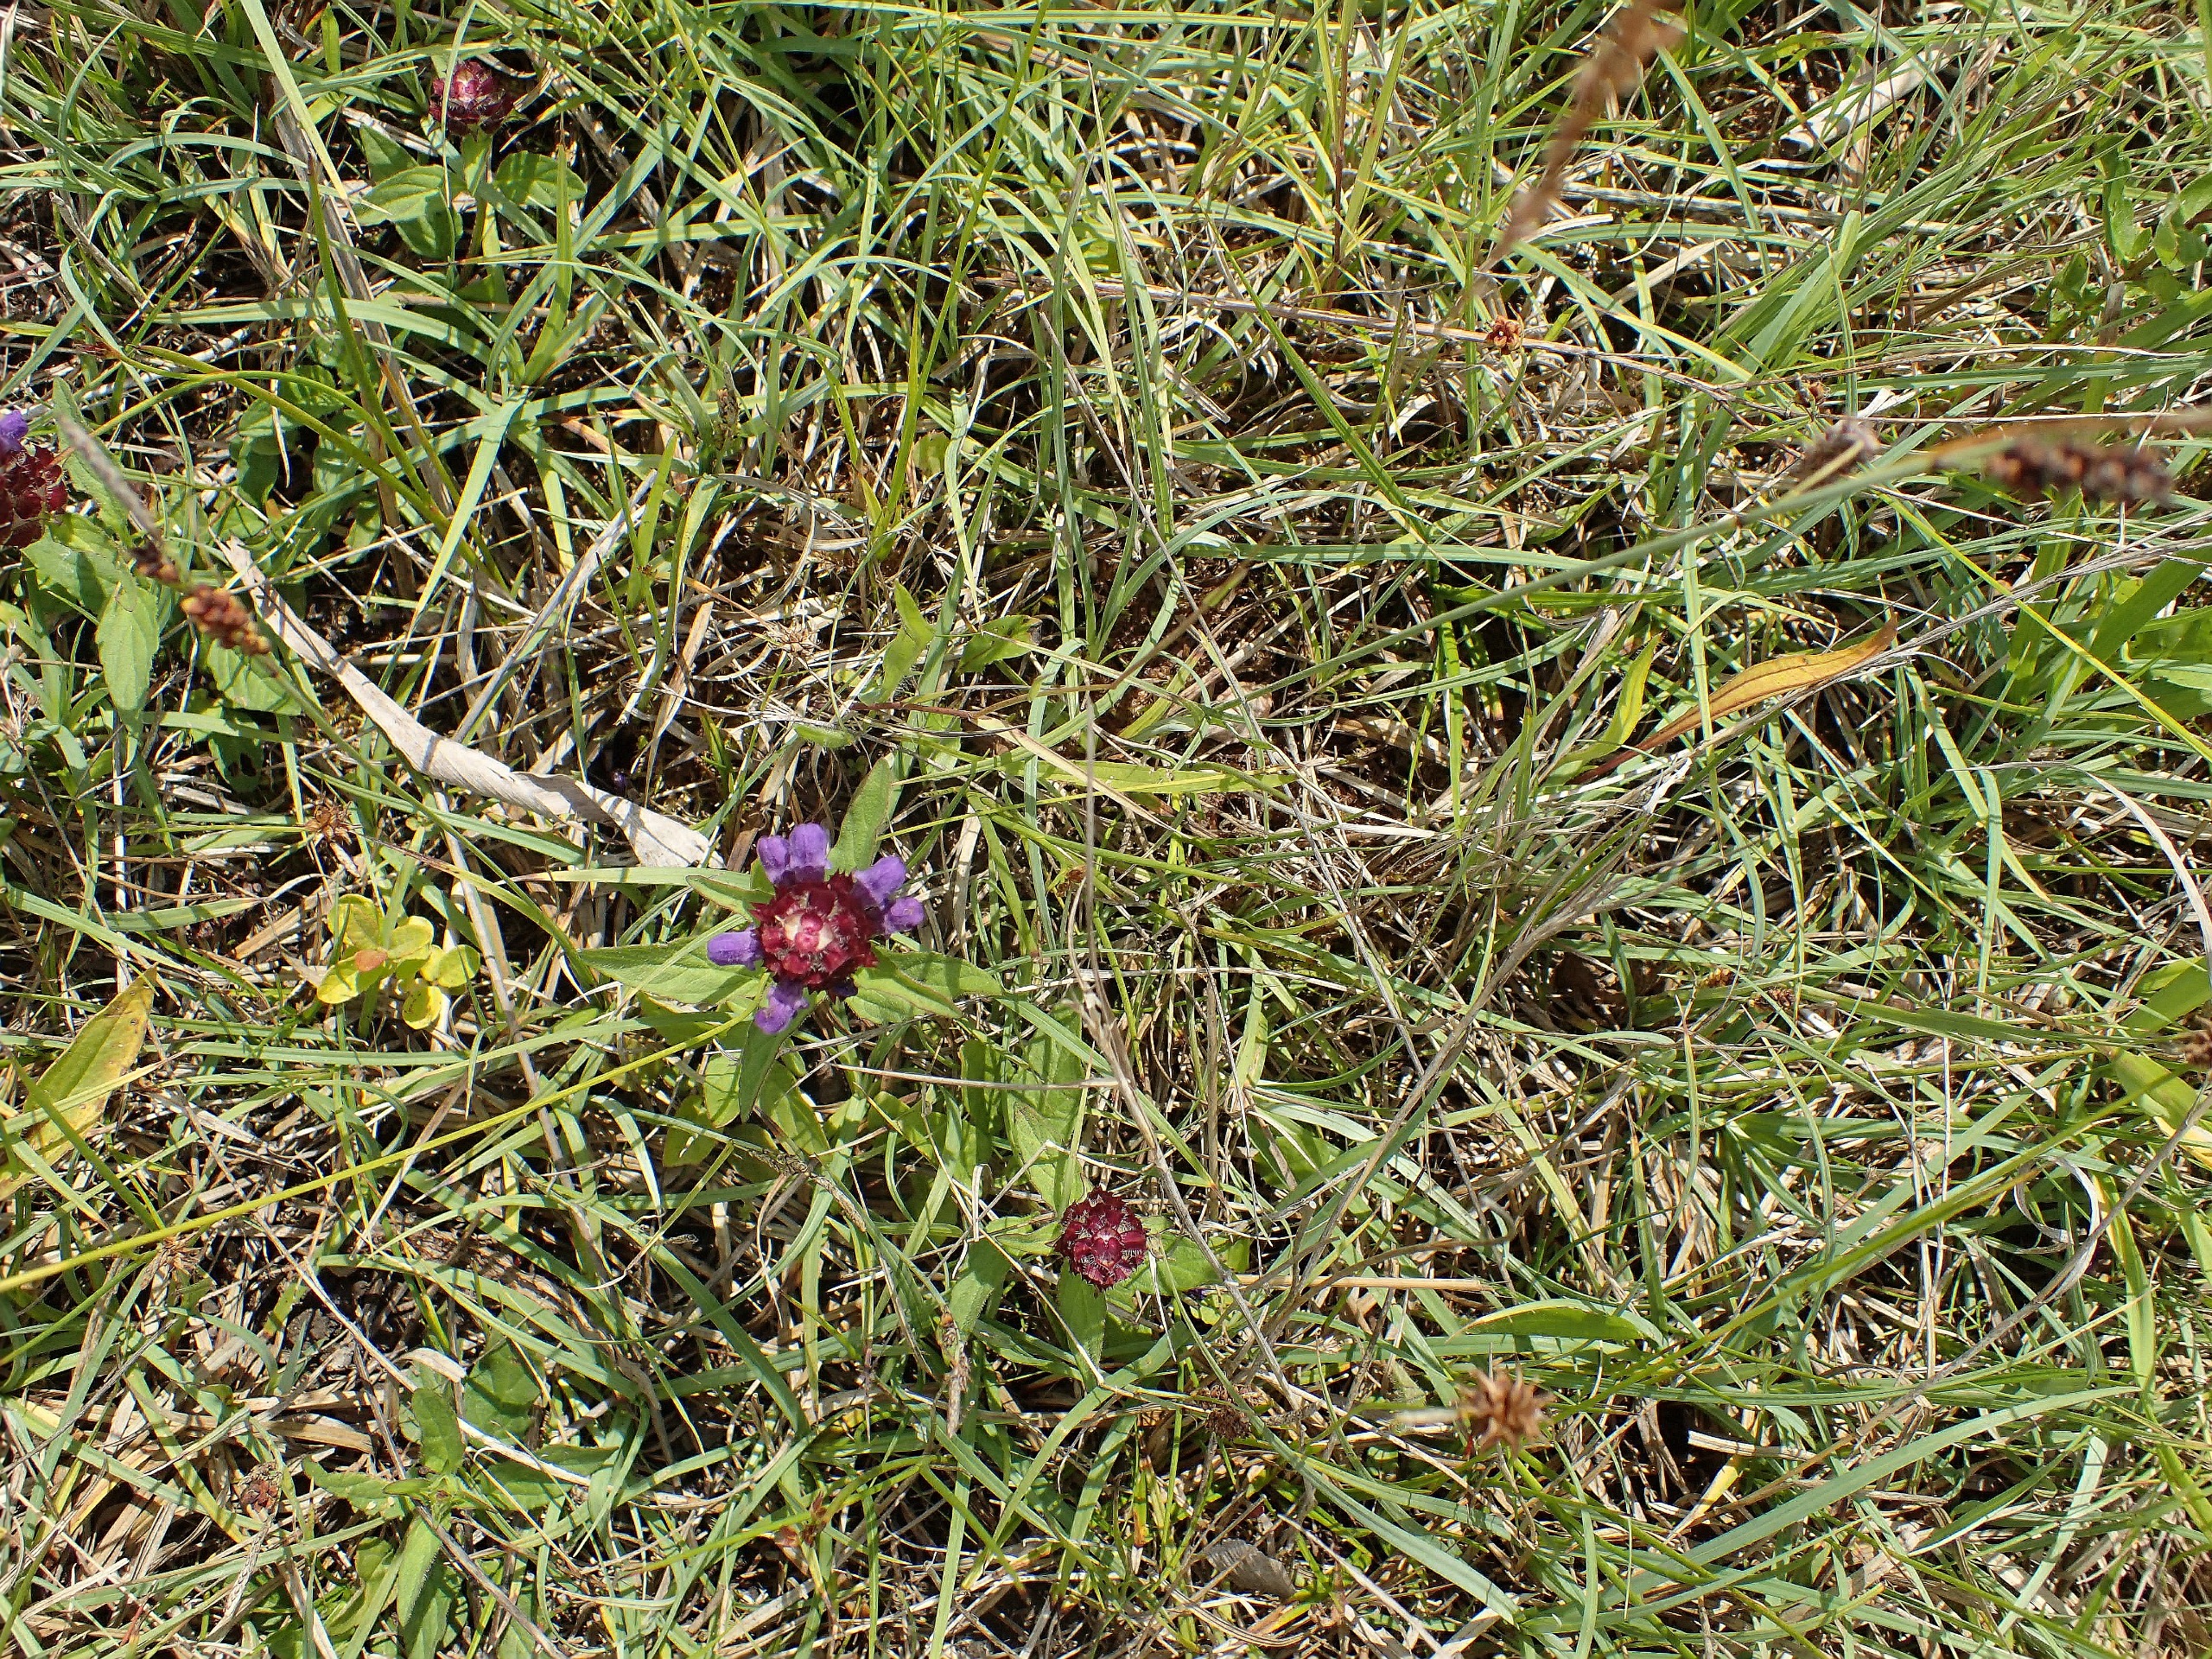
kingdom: Plantae
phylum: Tracheophyta
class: Magnoliopsida
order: Lamiales
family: Lamiaceae
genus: Prunella
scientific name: Prunella vulgaris
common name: Almindelig brunelle
